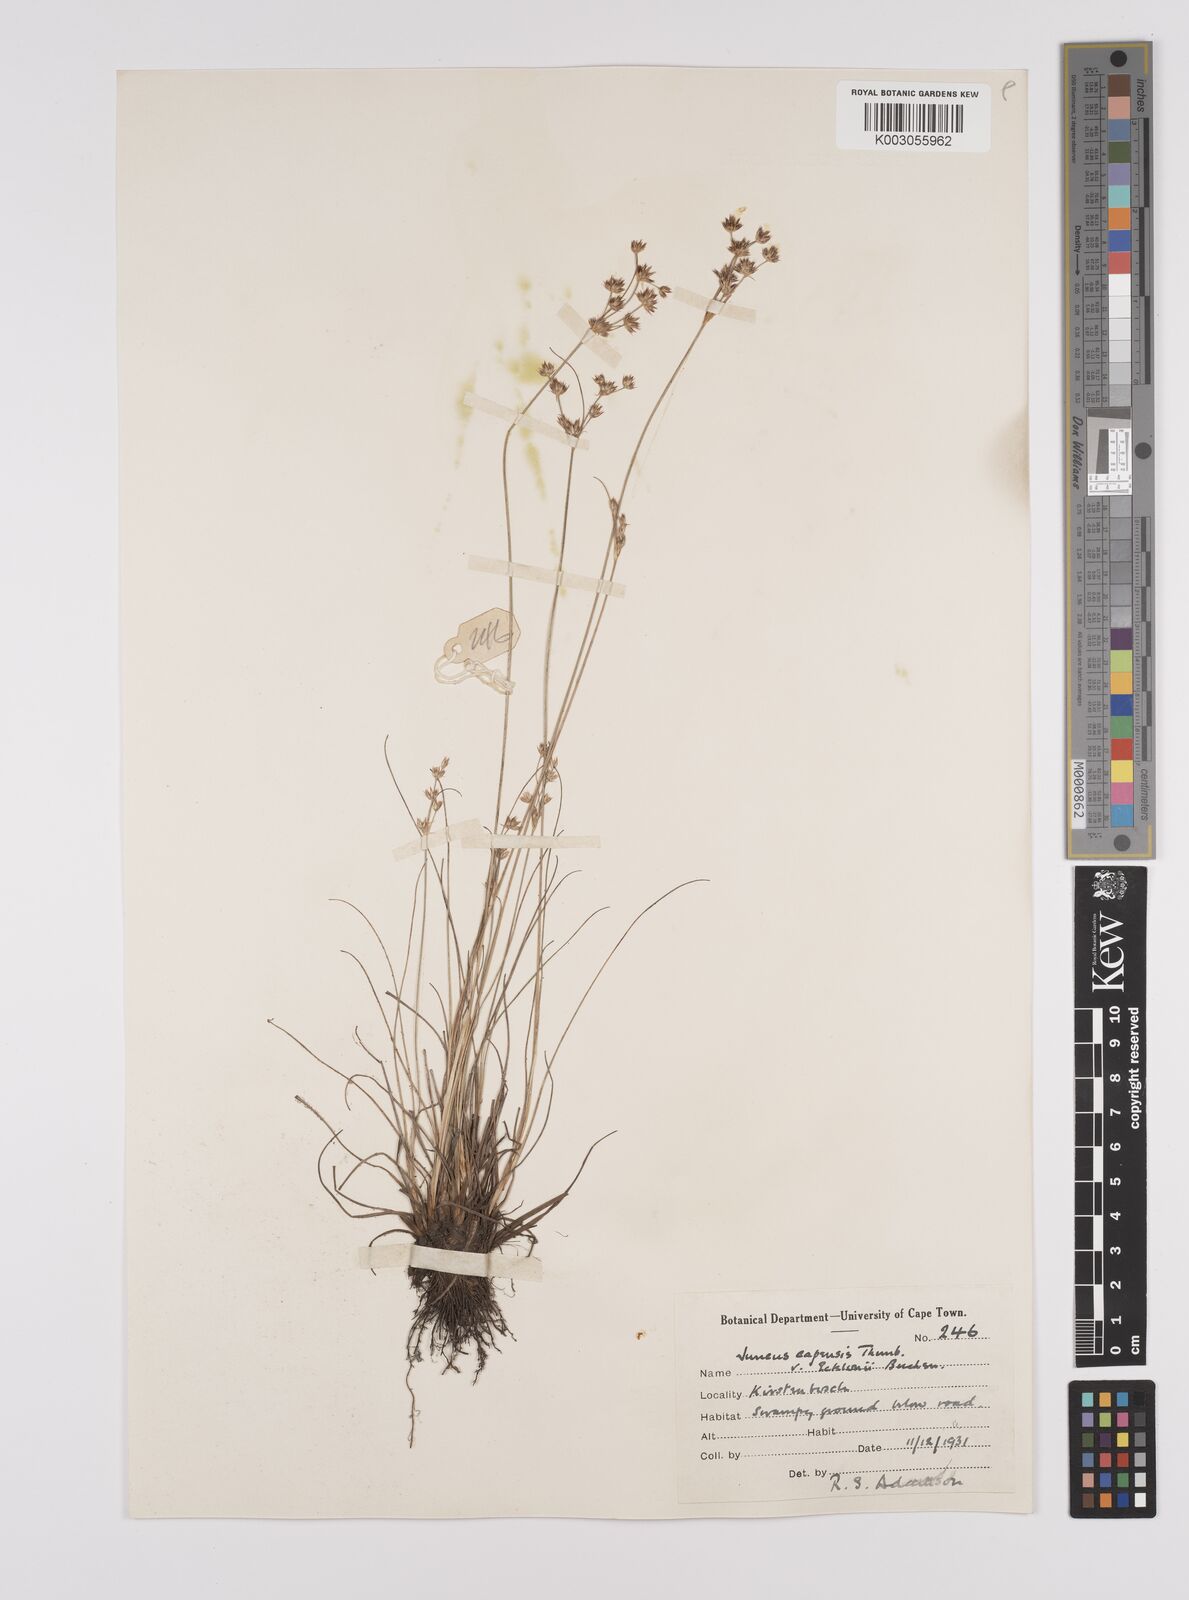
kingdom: Plantae
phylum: Tracheophyta
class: Liliopsida
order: Poales
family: Juncaceae
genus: Juncus
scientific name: Juncus capensis
